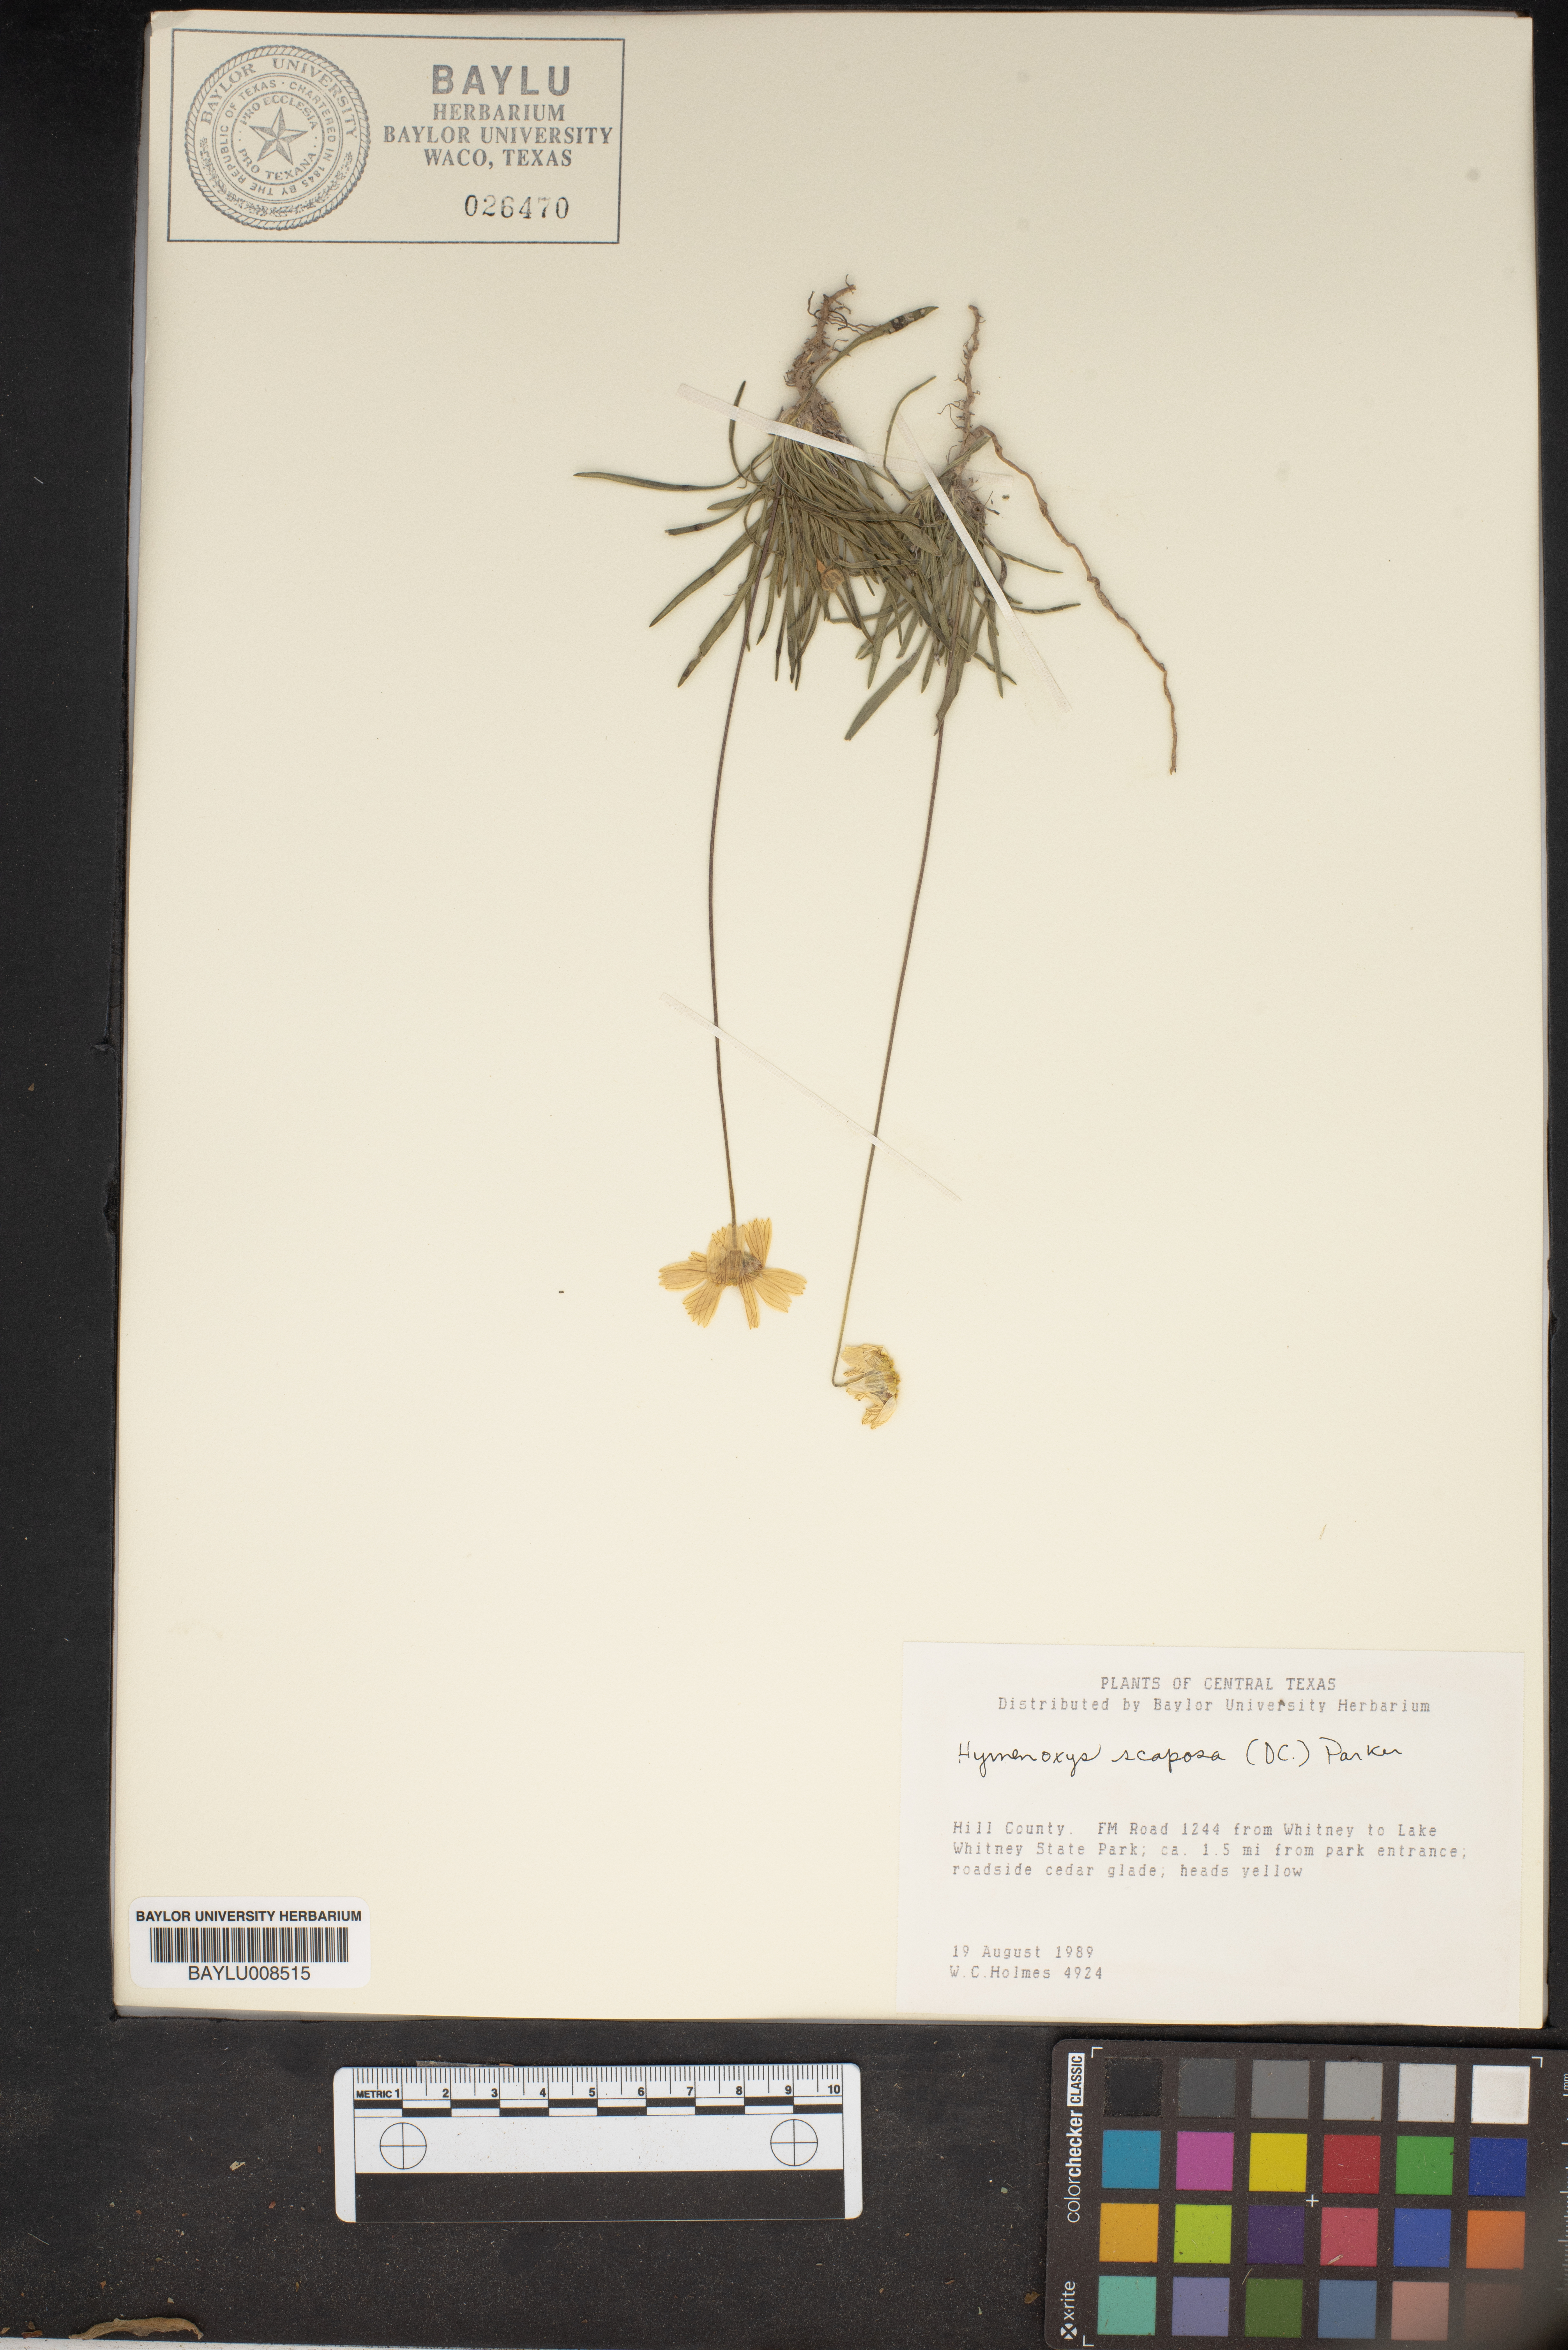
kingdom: Plantae
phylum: Tracheophyta
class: Magnoliopsida
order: Asterales
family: Asteraceae
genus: Tetraneuris
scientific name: Tetraneuris scaposa
